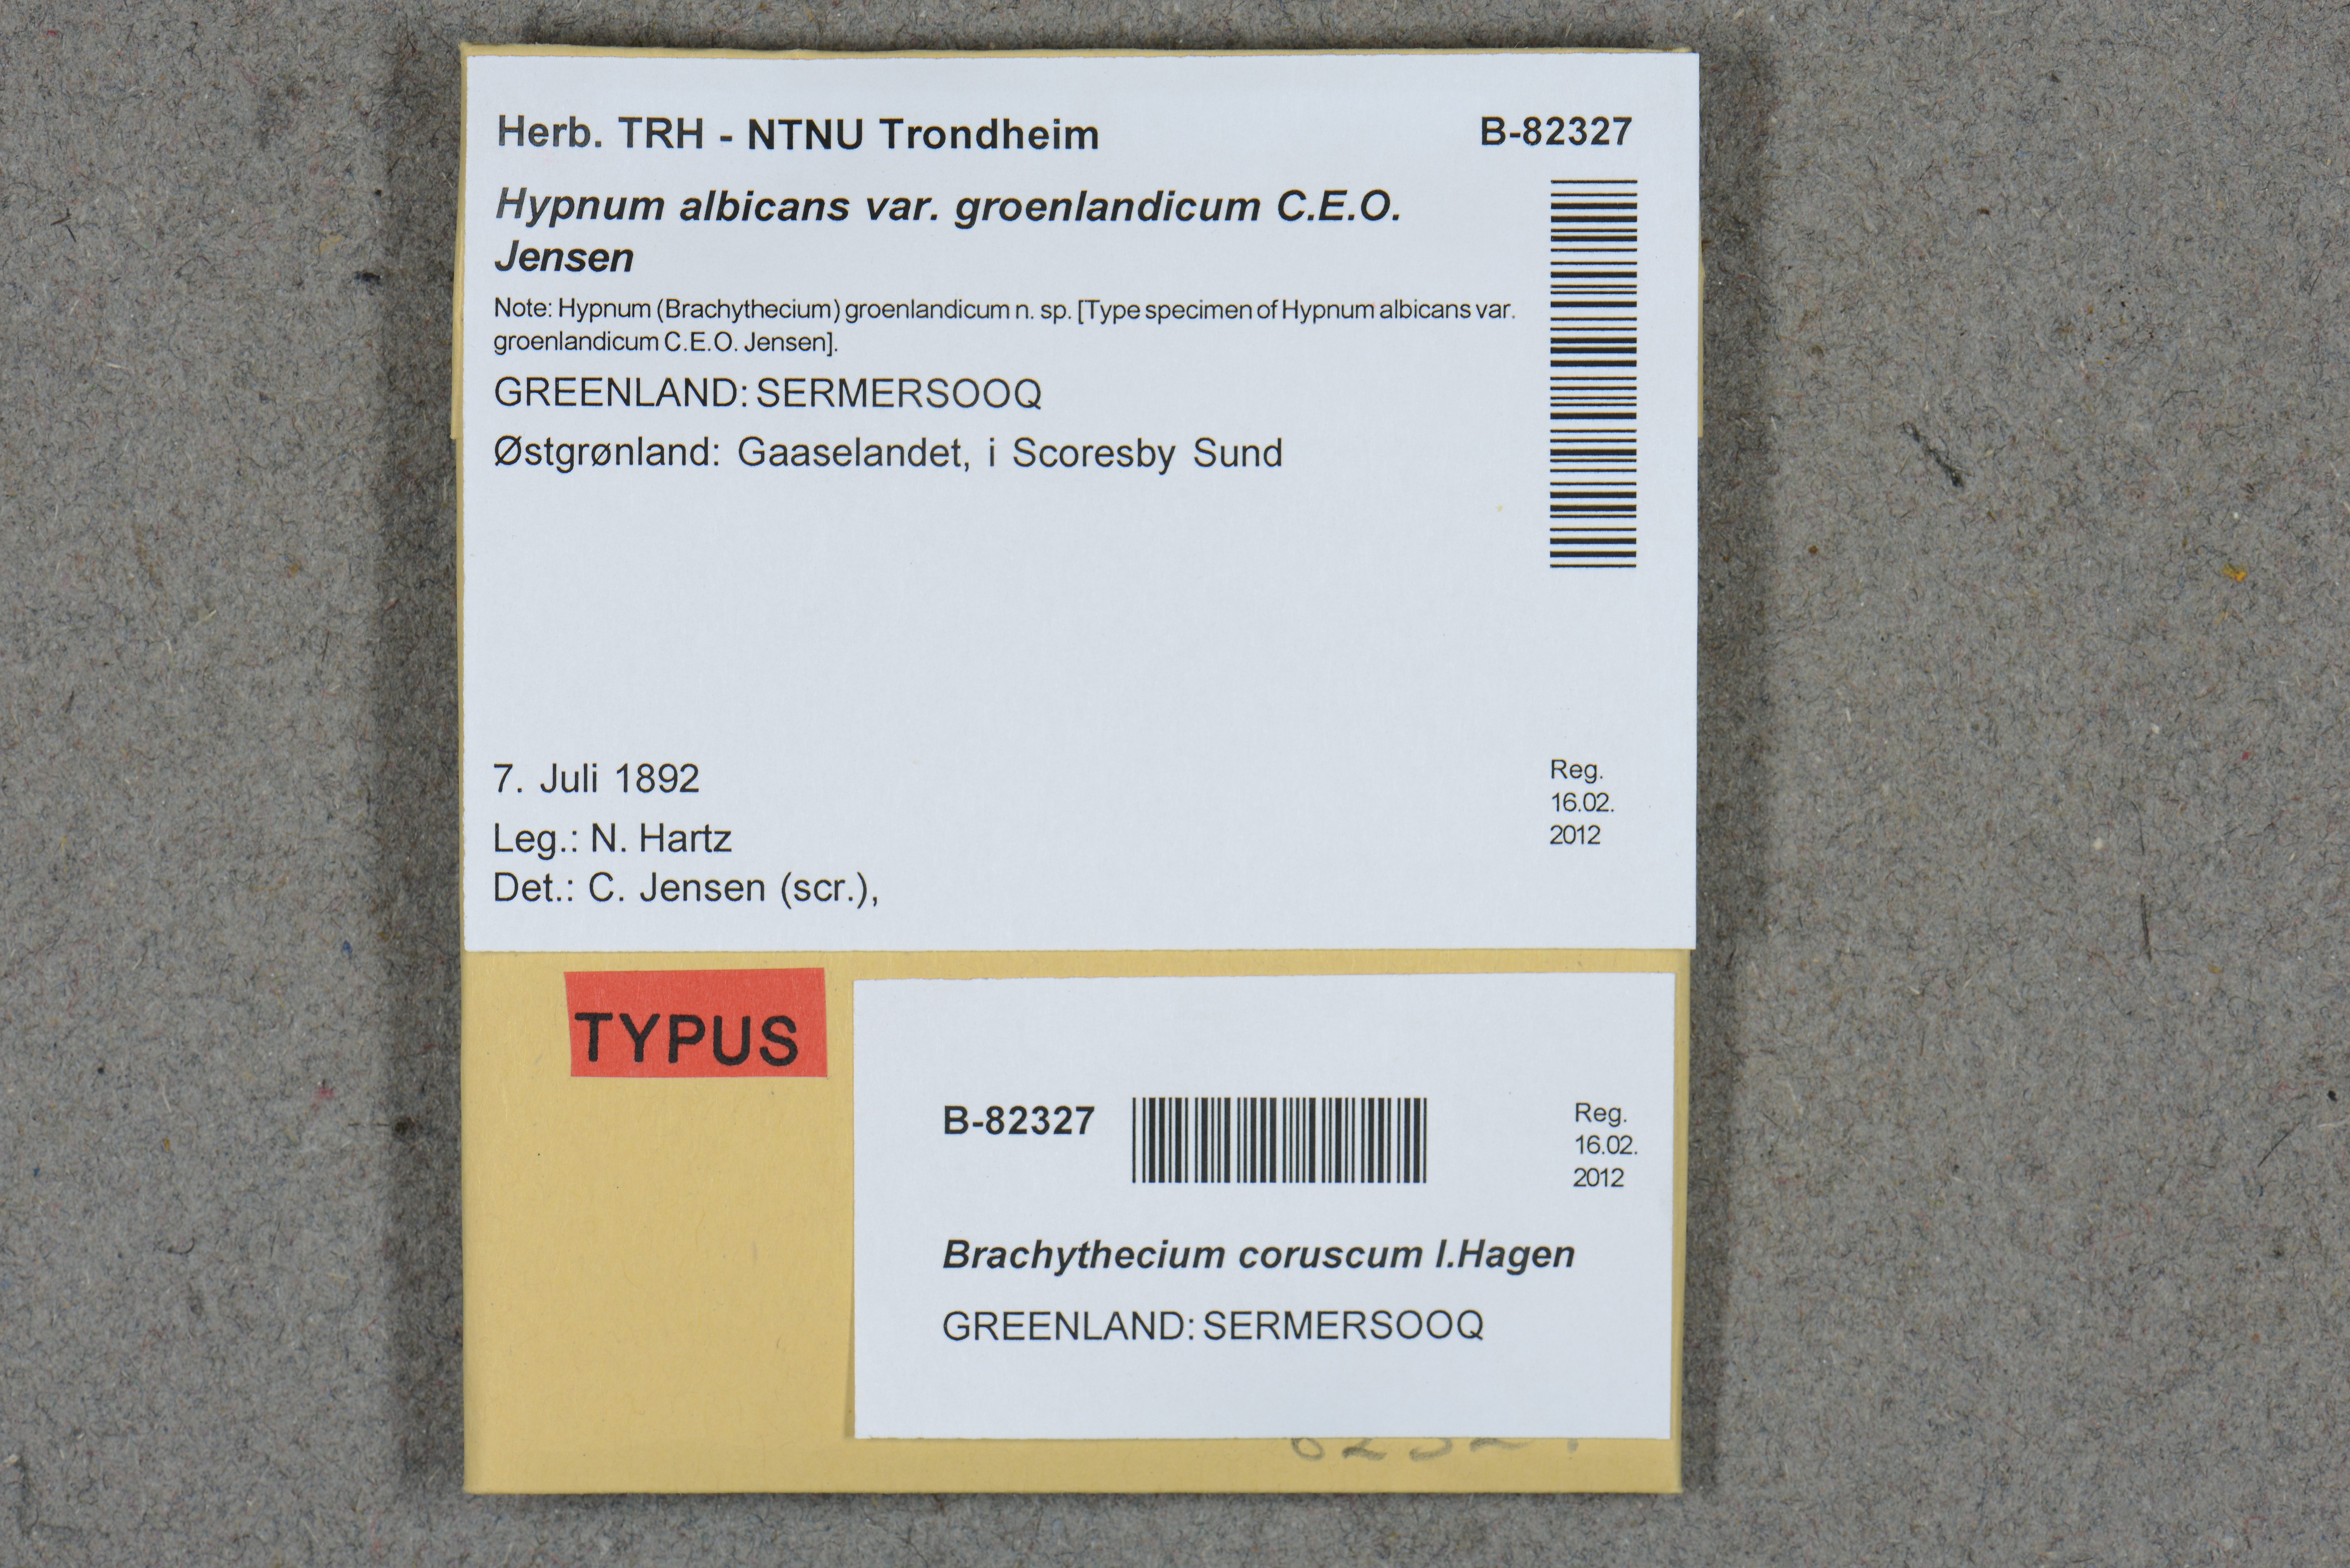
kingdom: Plantae
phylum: Bryophyta
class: Bryopsida
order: Hypnales
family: Brachytheciaceae
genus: Brachythecium
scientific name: Brachythecium tauriscorum
